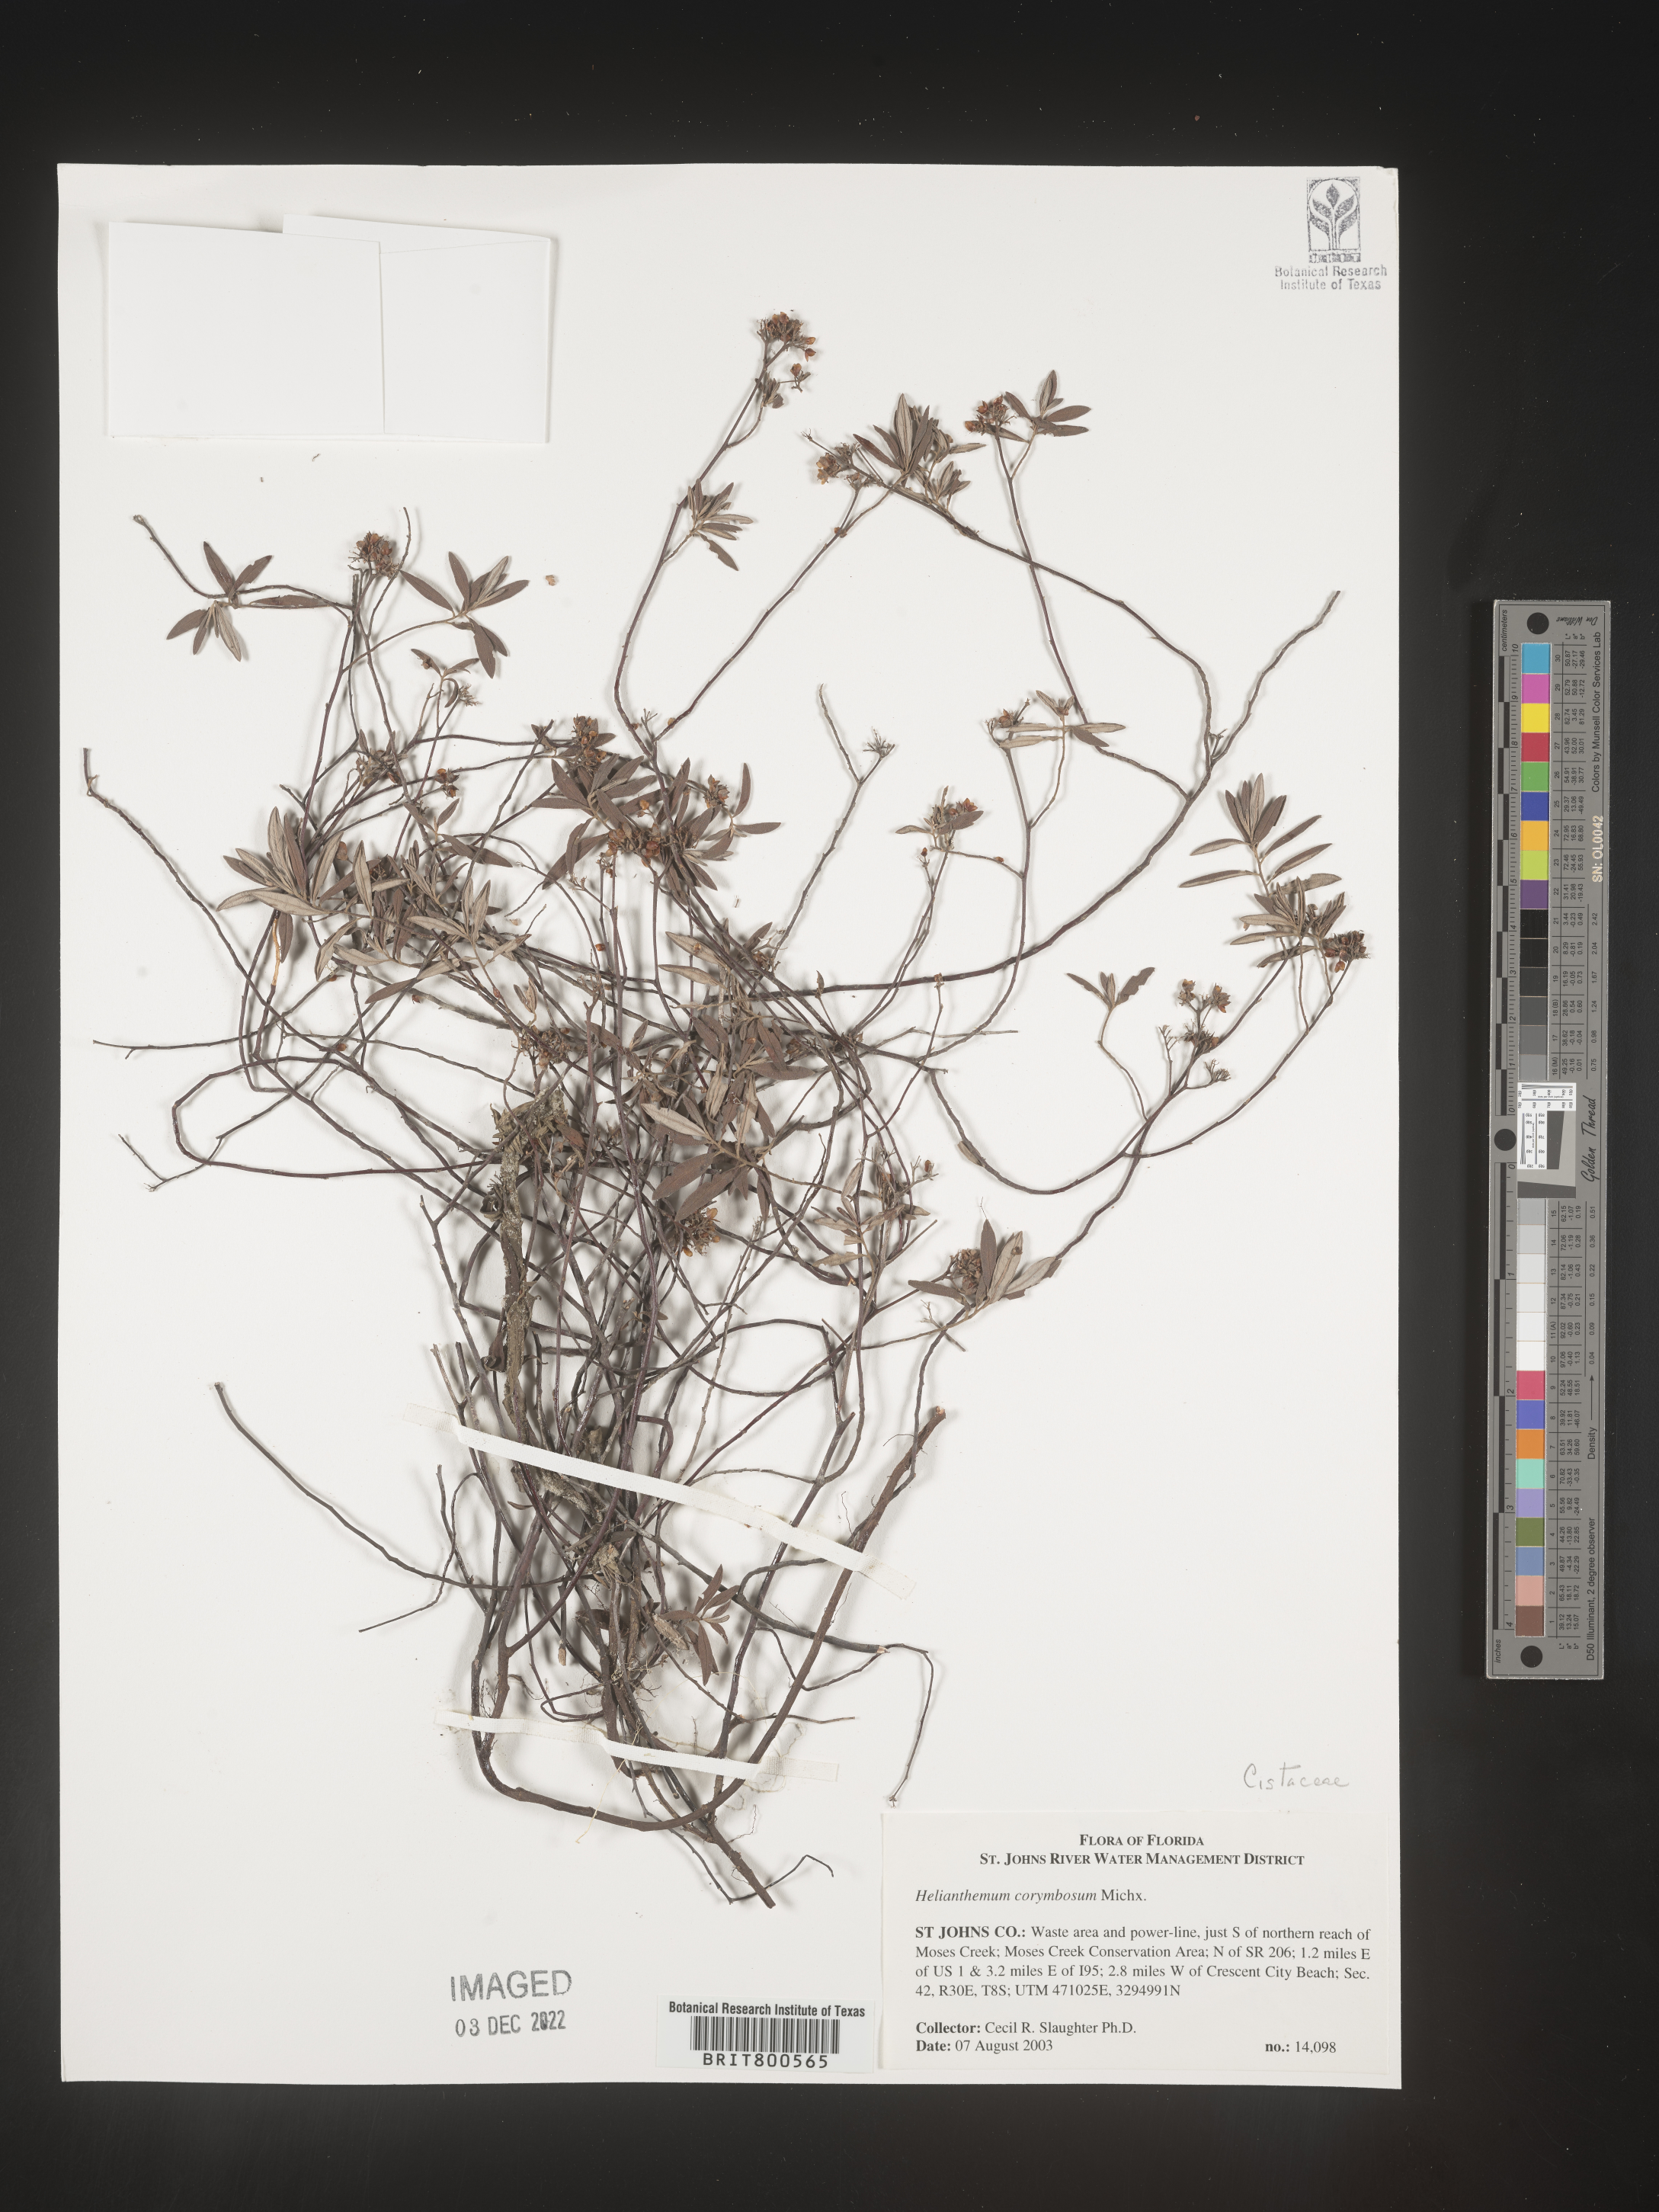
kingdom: Plantae
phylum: Tracheophyta
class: Magnoliopsida
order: Malvales
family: Cistaceae
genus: Crocanthemum
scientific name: Crocanthemum corymbosum
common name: Pinebarren sun-rose
